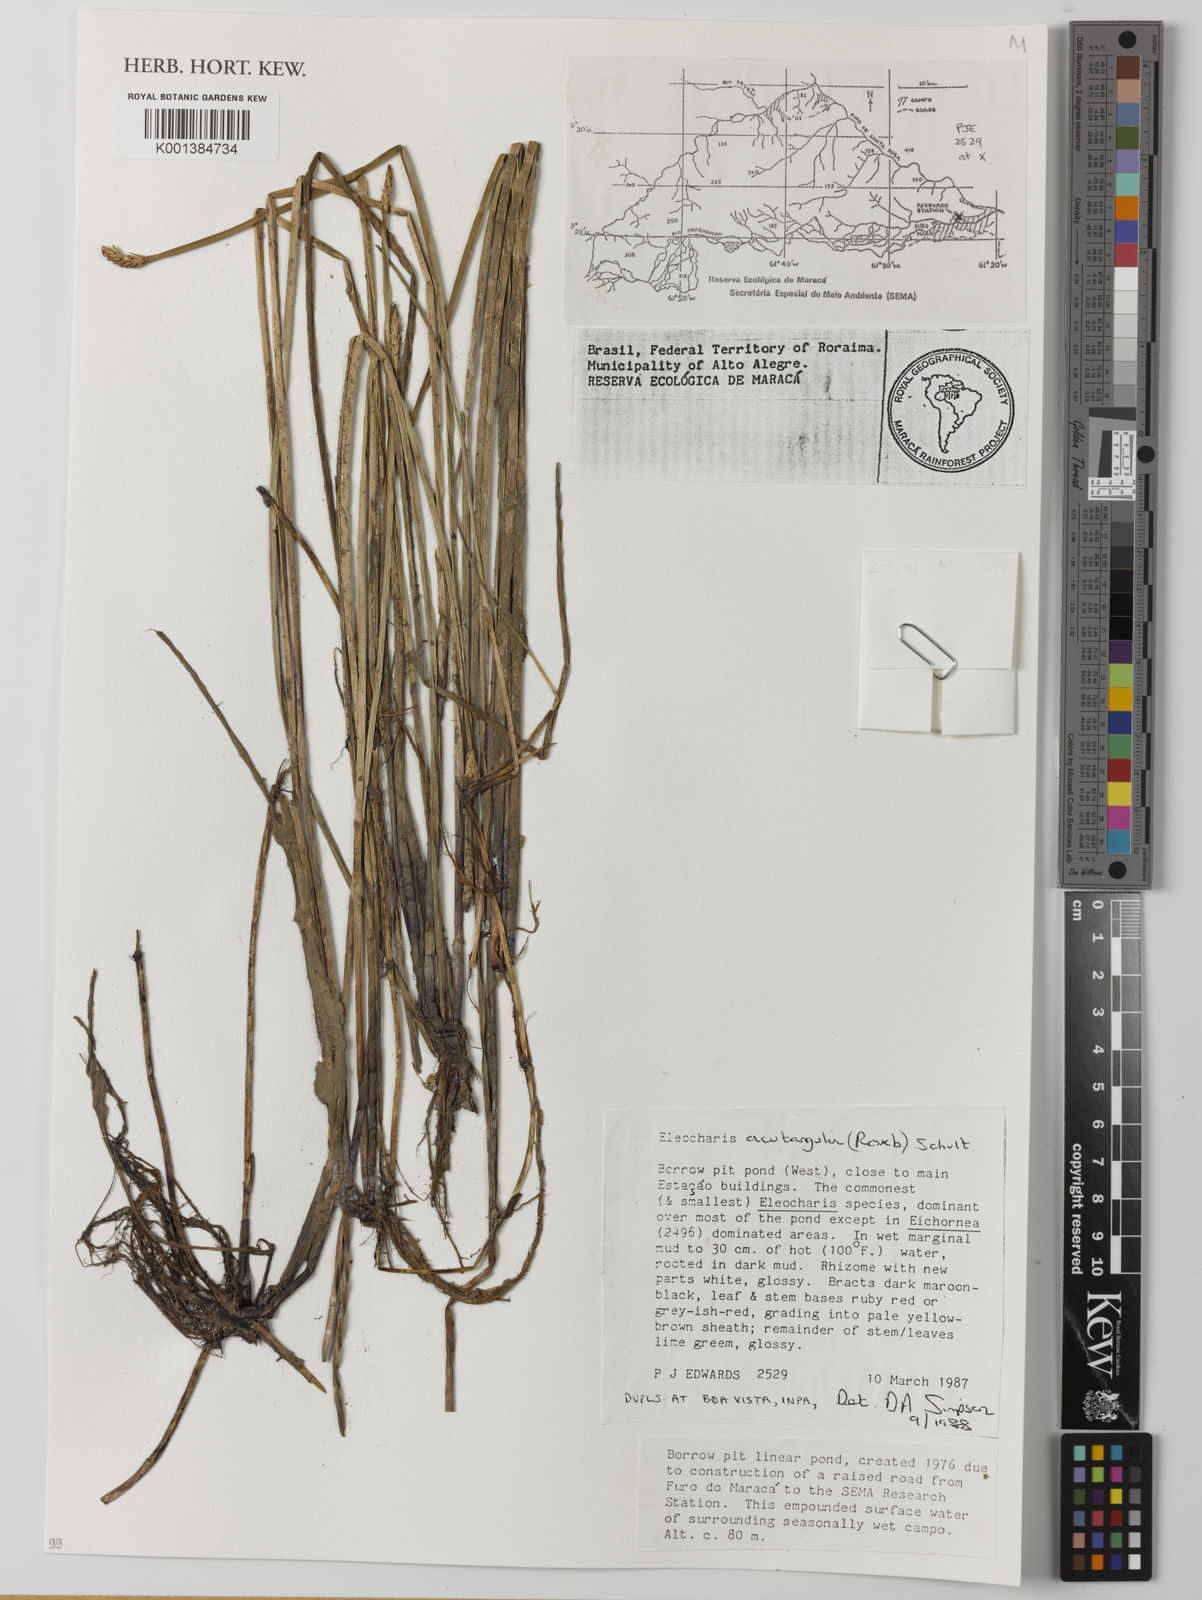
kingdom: Plantae
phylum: Tracheophyta
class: Liliopsida
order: Poales
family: Cyperaceae
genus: Eleocharis
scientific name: Eleocharis acutangula
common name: Acute spikerush
